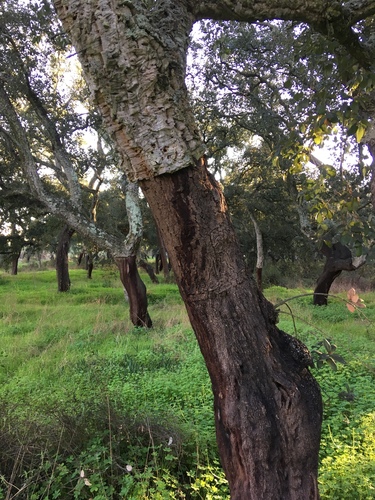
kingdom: Plantae
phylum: Tracheophyta
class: Magnoliopsida
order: Fagales
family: Fagaceae
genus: Quercus
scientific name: Quercus suber
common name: Cork oak
